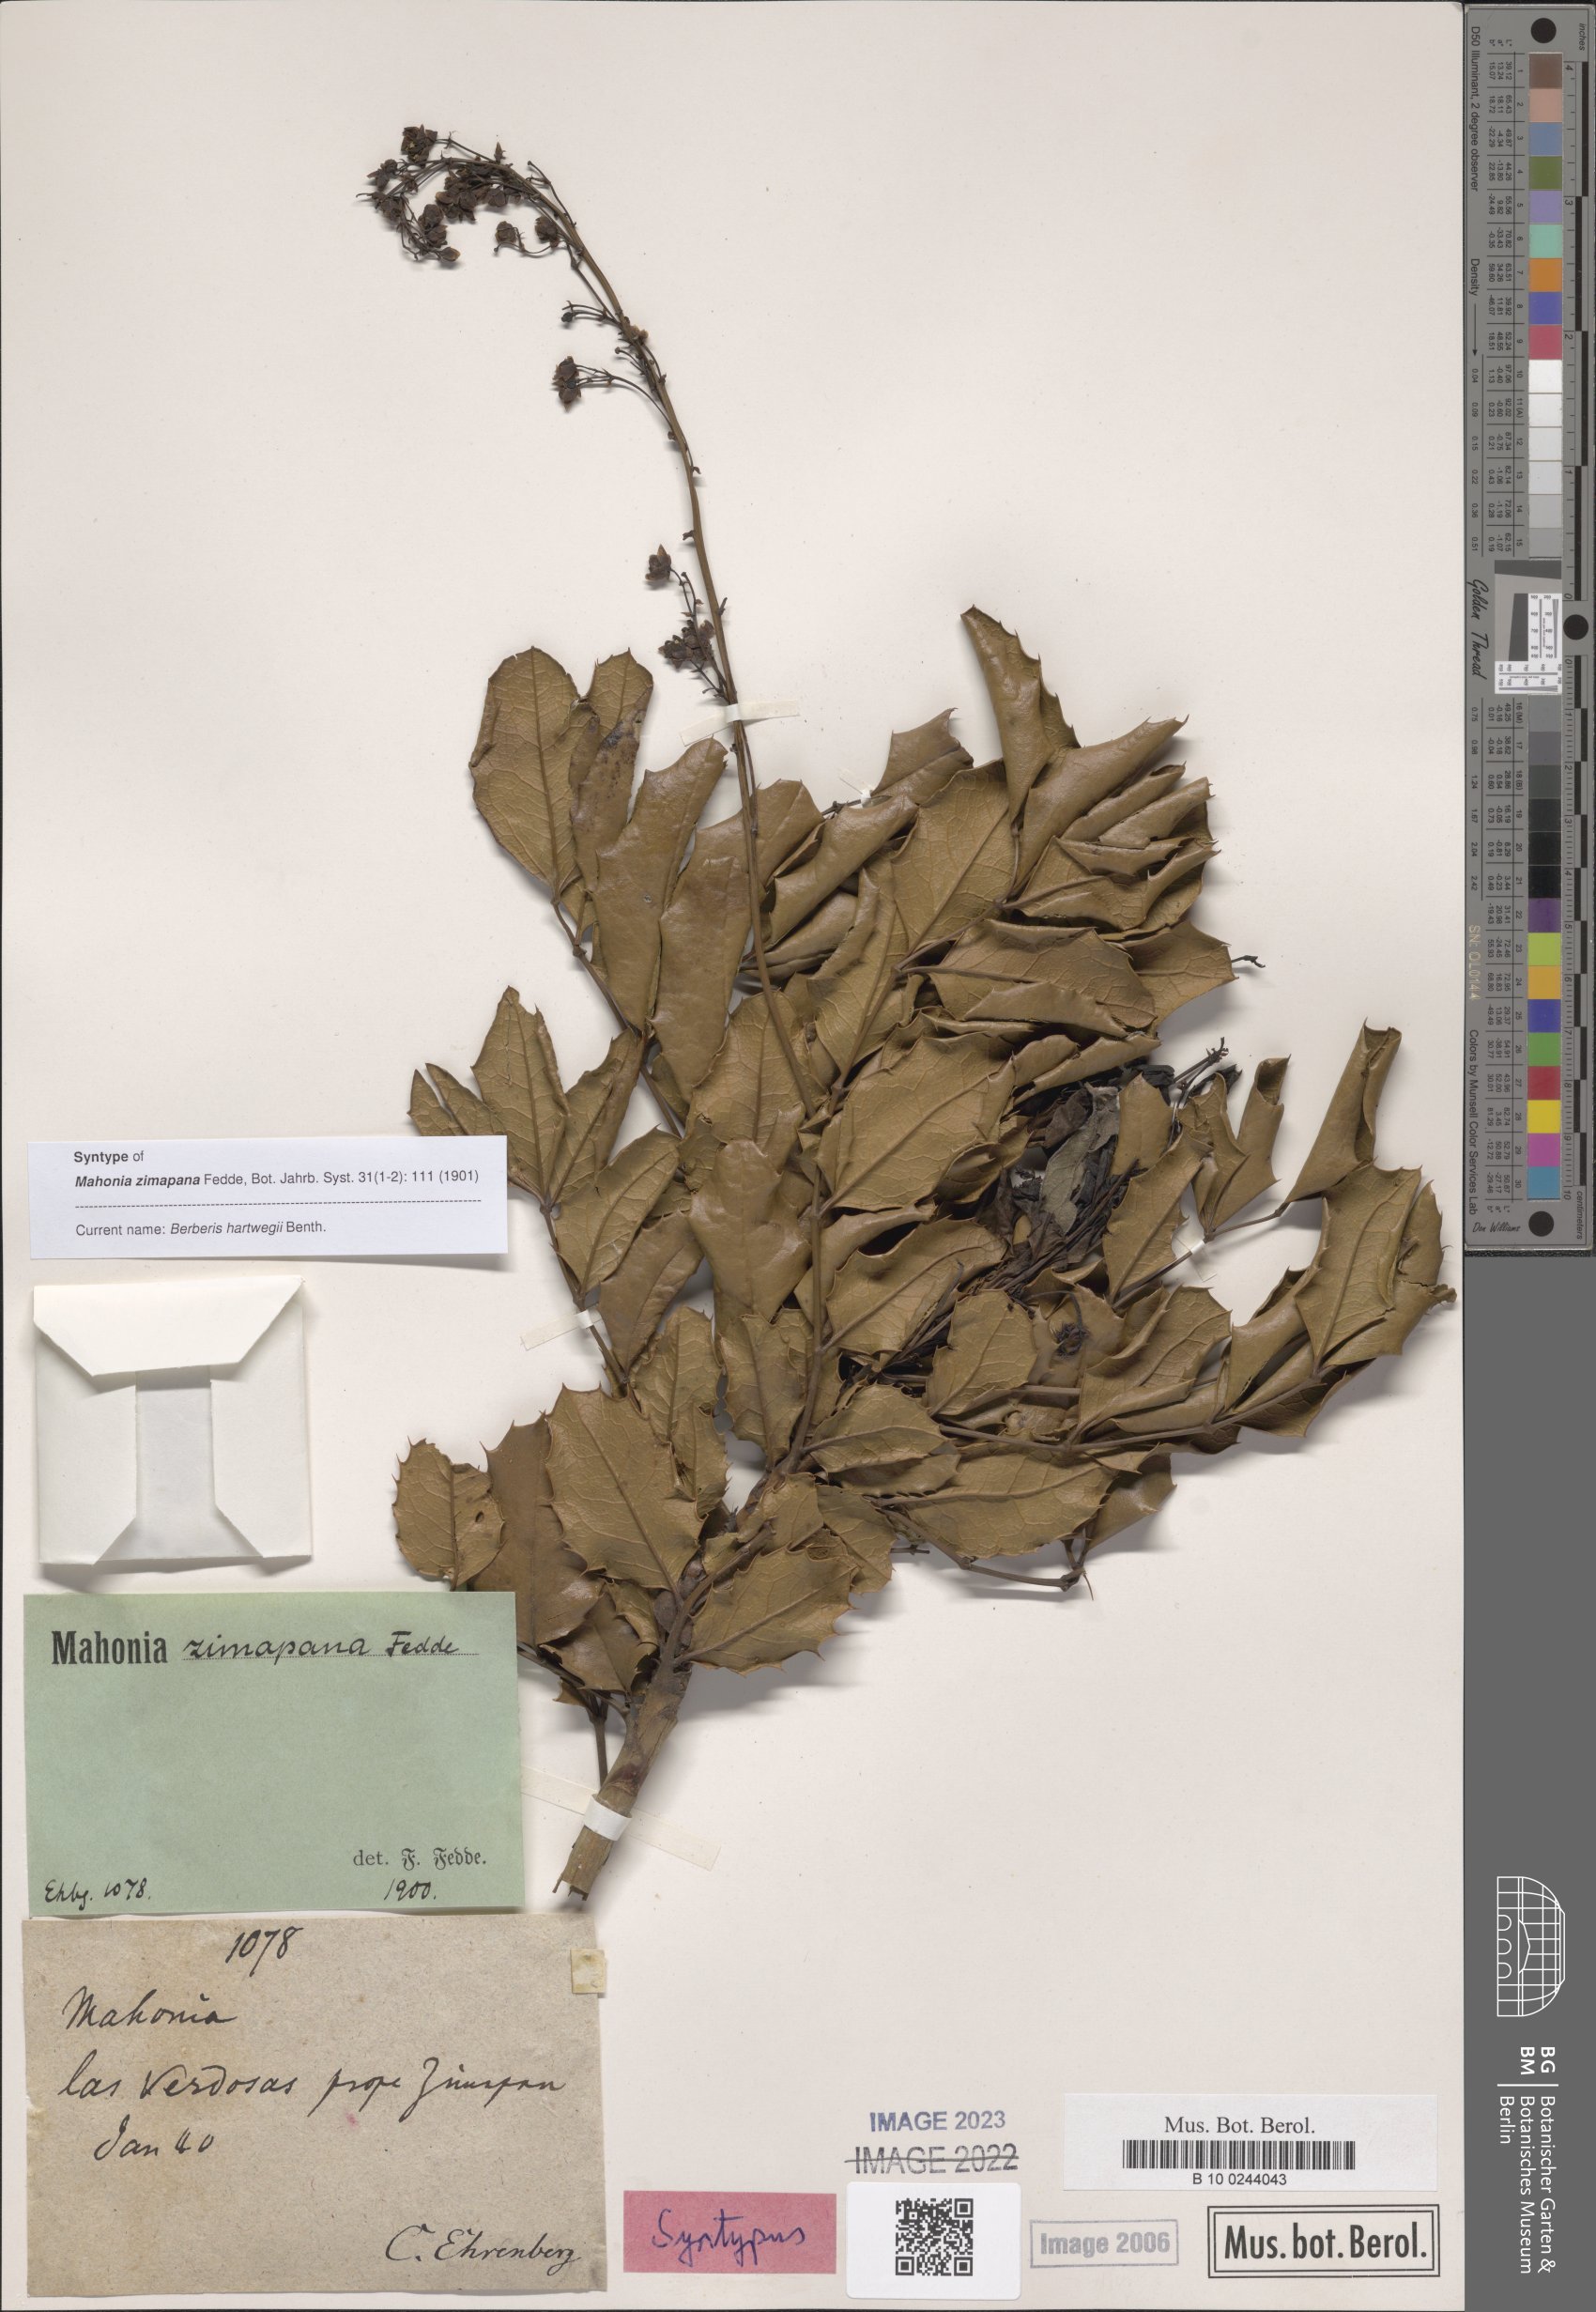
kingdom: Plantae
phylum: Tracheophyta
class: Magnoliopsida
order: Ranunculales
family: Berberidaceae
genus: Mahonia
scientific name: Mahonia hartwegii
